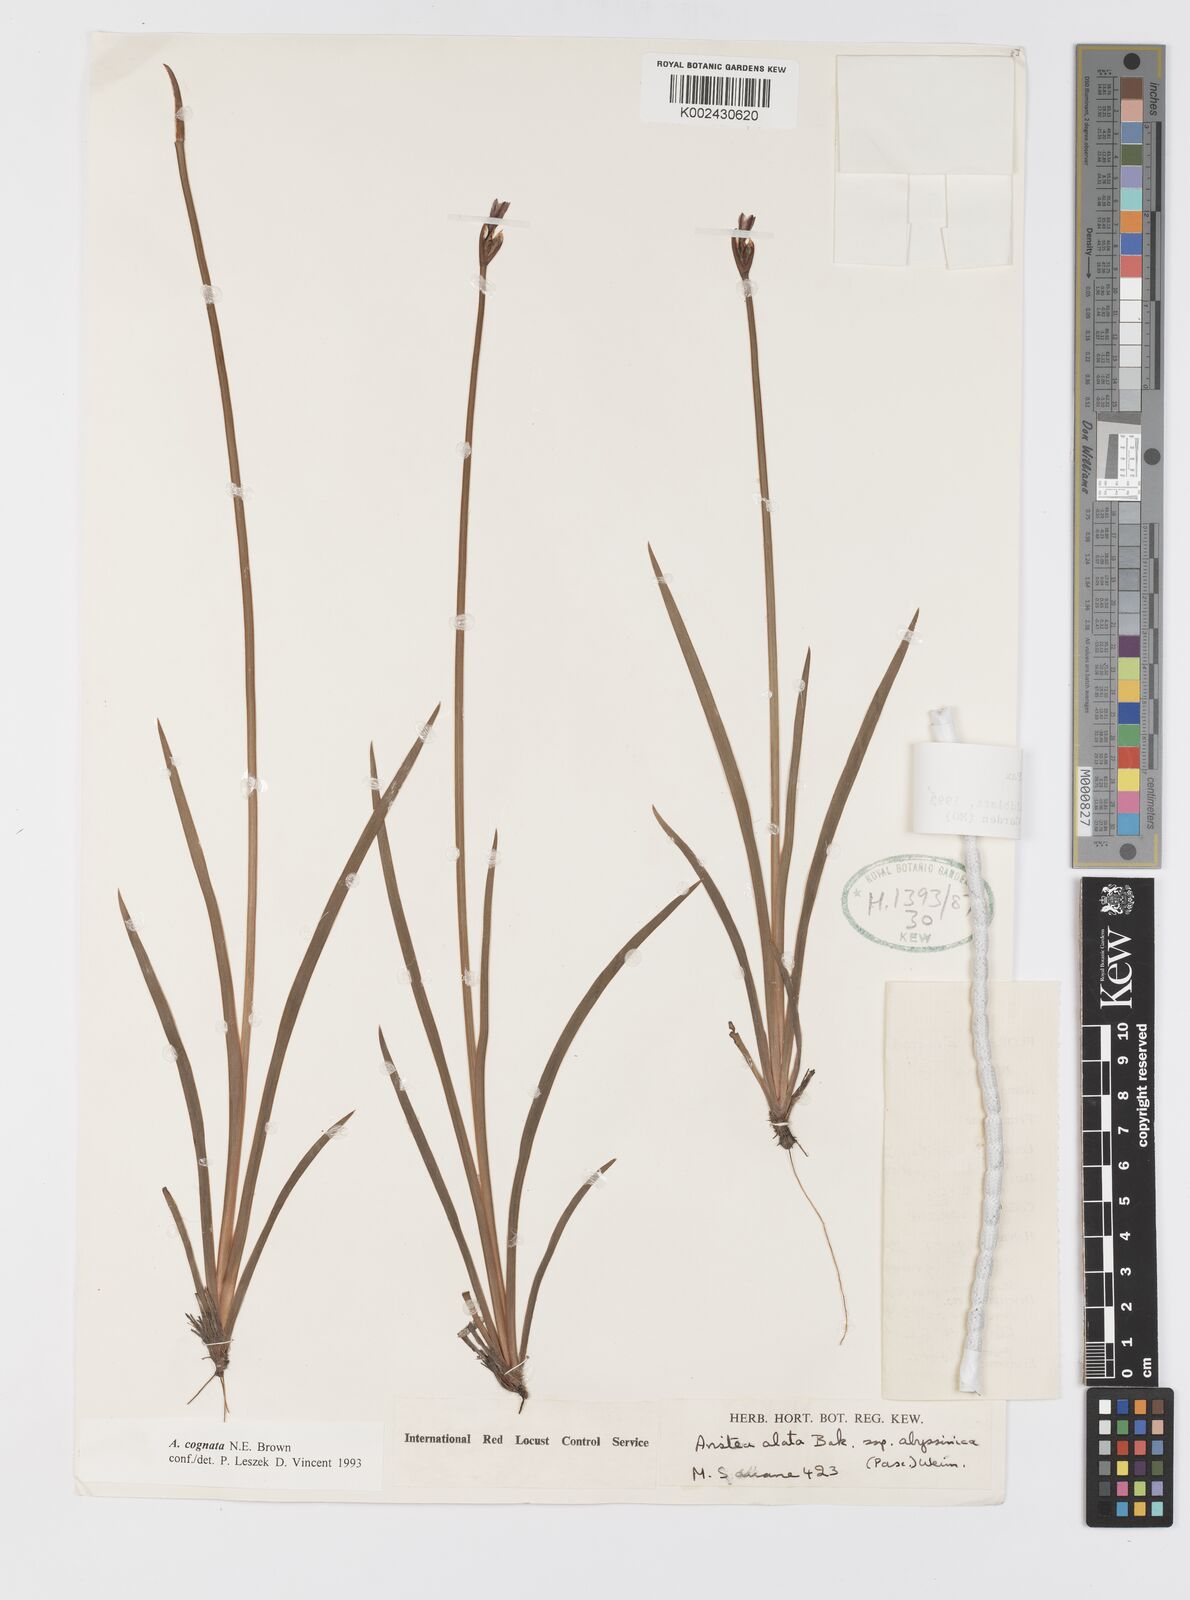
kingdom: Plantae
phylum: Tracheophyta
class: Liliopsida
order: Asparagales
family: Iridaceae
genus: Aristea
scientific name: Aristea abyssinica
